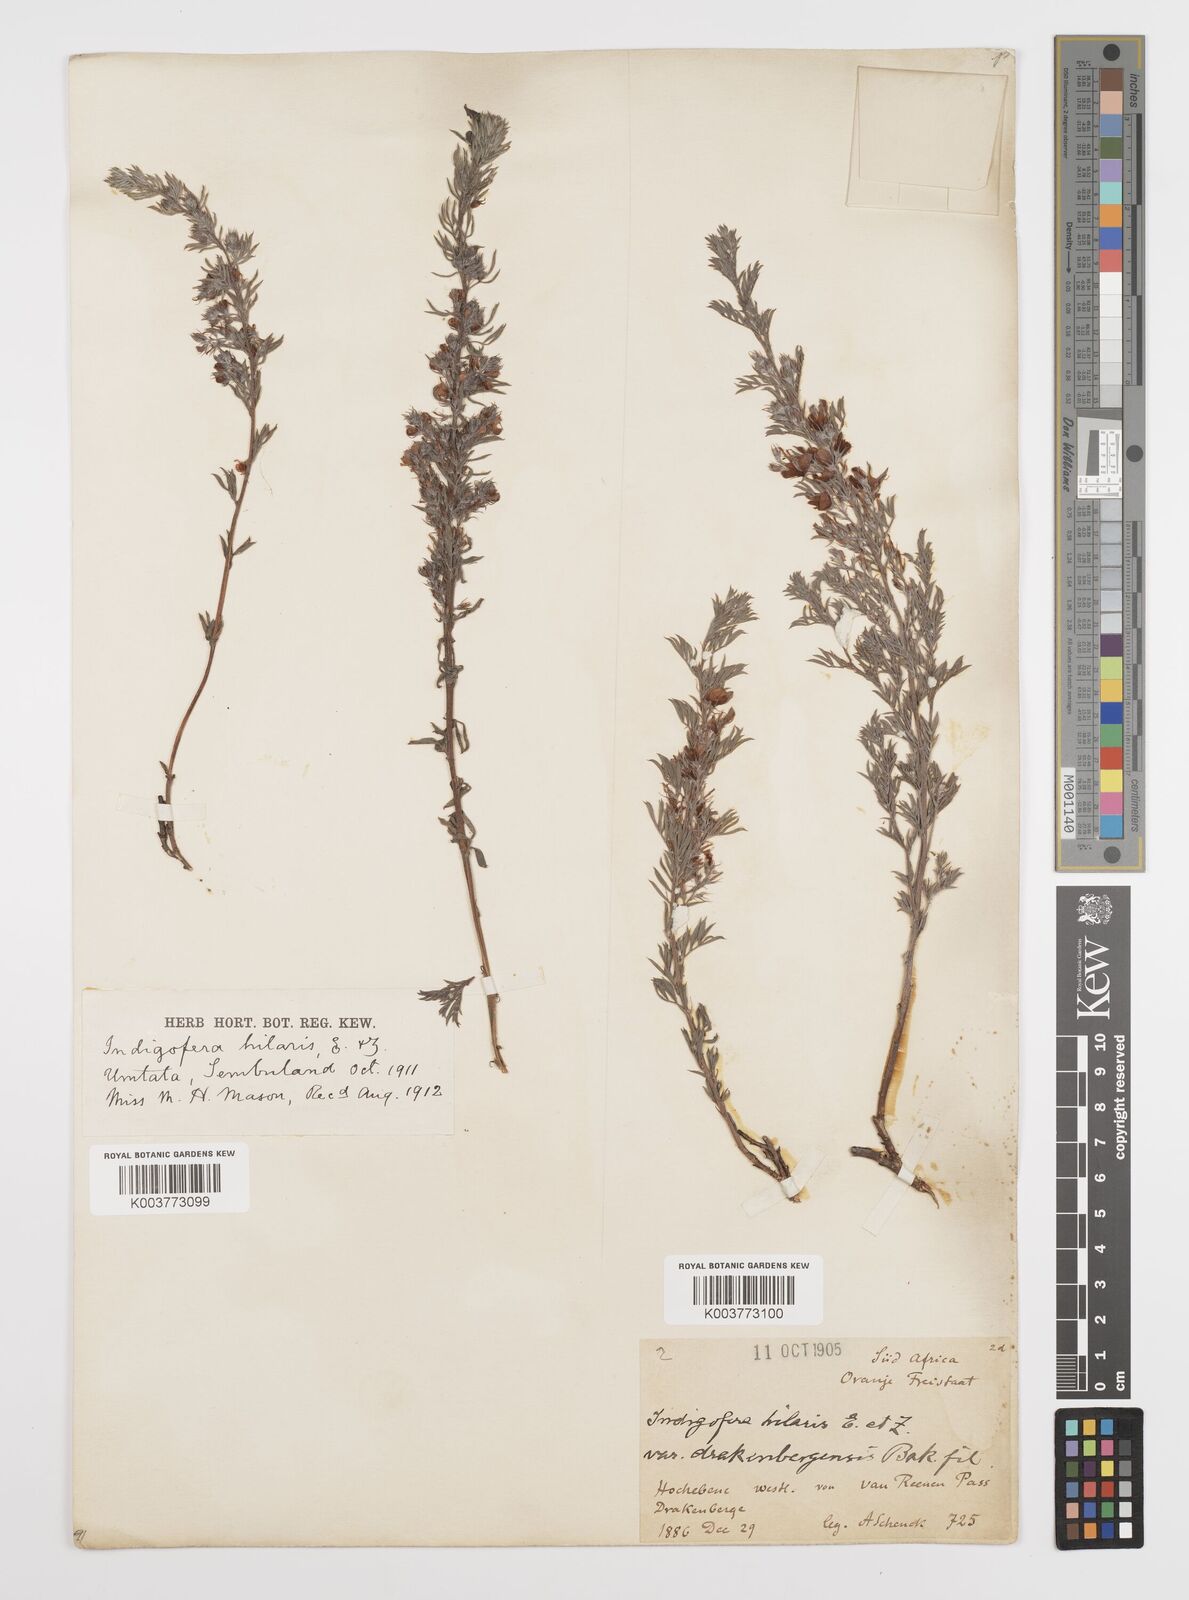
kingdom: Plantae
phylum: Tracheophyta
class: Magnoliopsida
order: Fabales
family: Fabaceae
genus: Indigofera
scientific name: Indigofera
